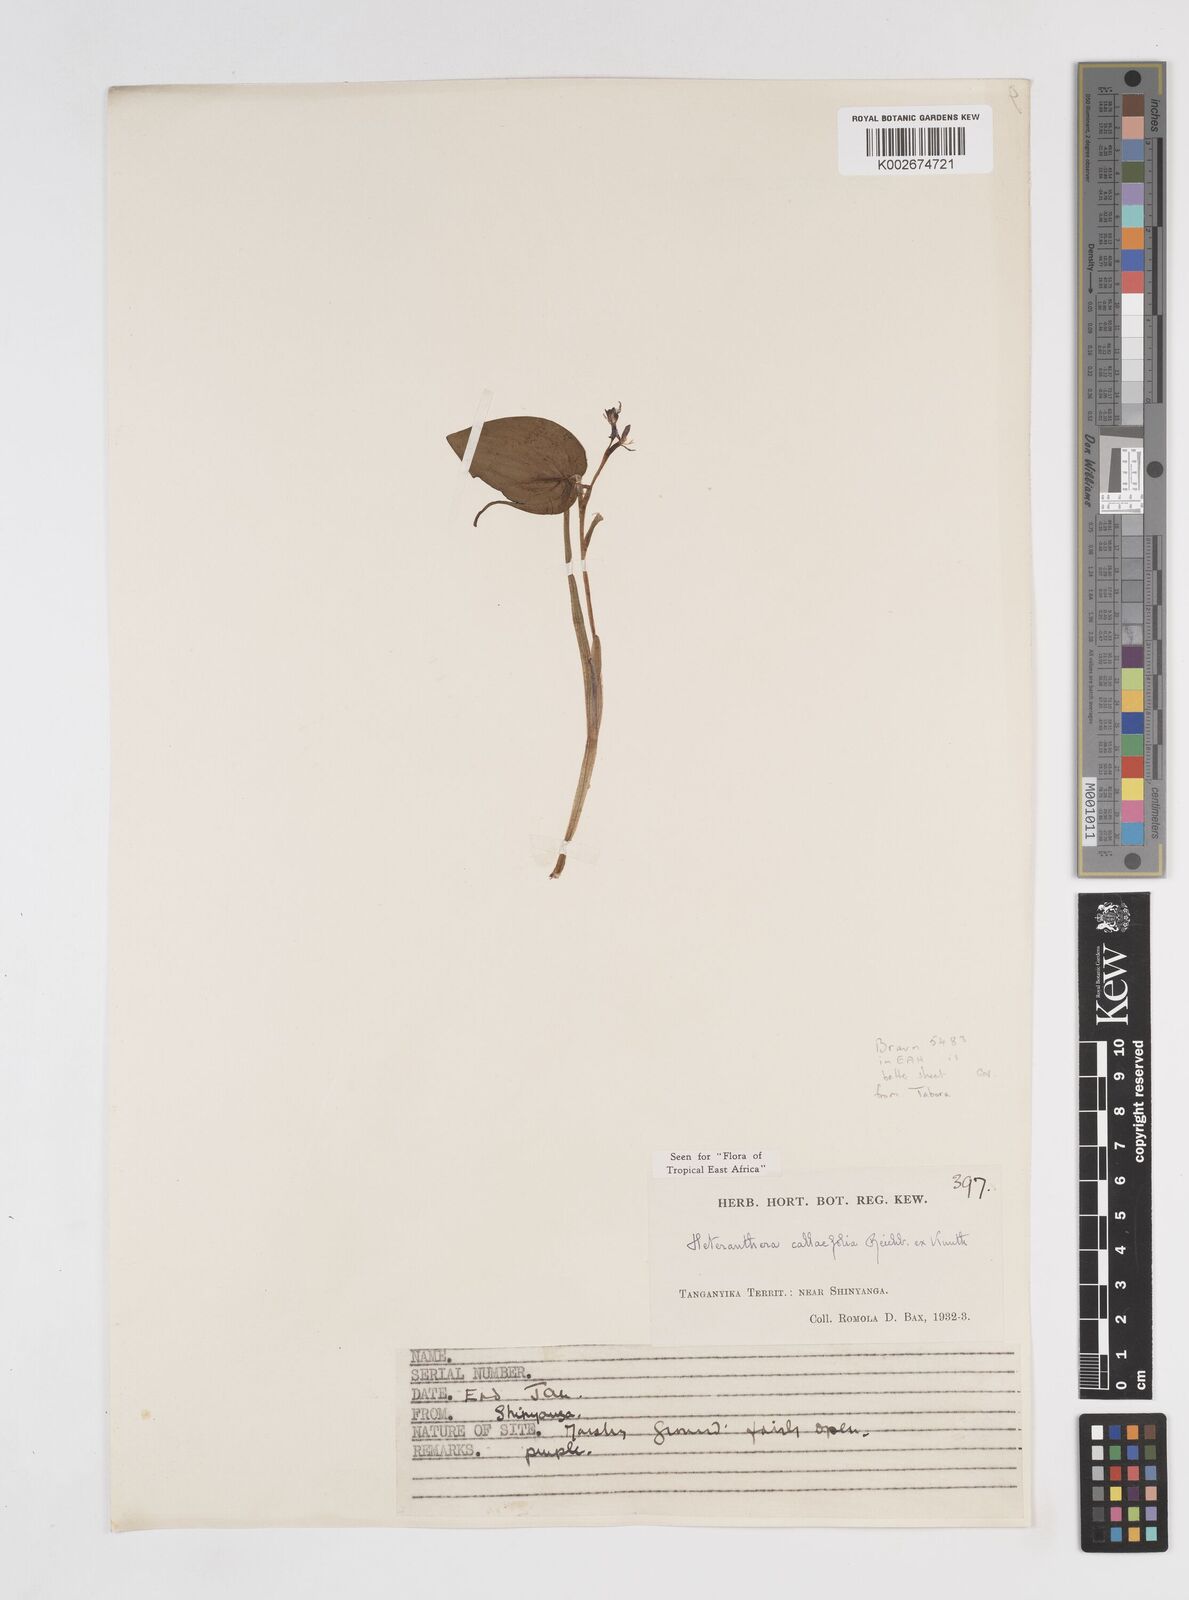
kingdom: Plantae
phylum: Tracheophyta
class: Liliopsida
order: Commelinales
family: Pontederiaceae
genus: Heteranthera
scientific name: Heteranthera callifolia
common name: Mud plantain
